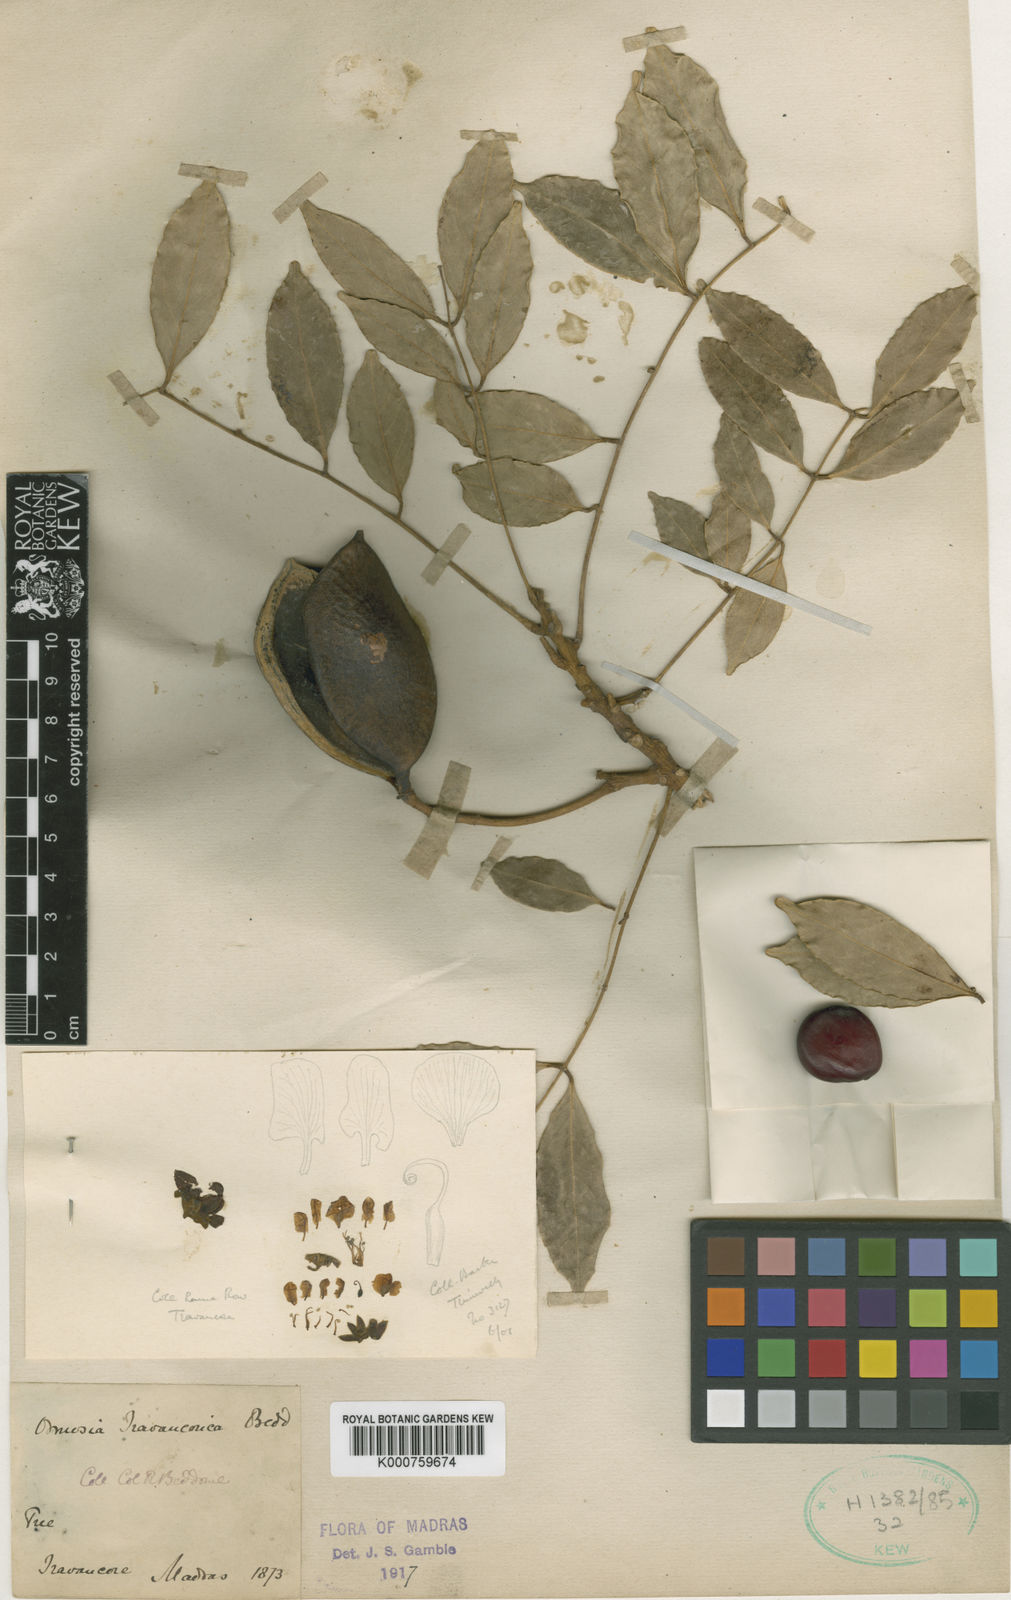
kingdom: Plantae
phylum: Tracheophyta
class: Magnoliopsida
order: Fabales
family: Fabaceae
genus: Ormosia
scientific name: Ormosia travancorica
